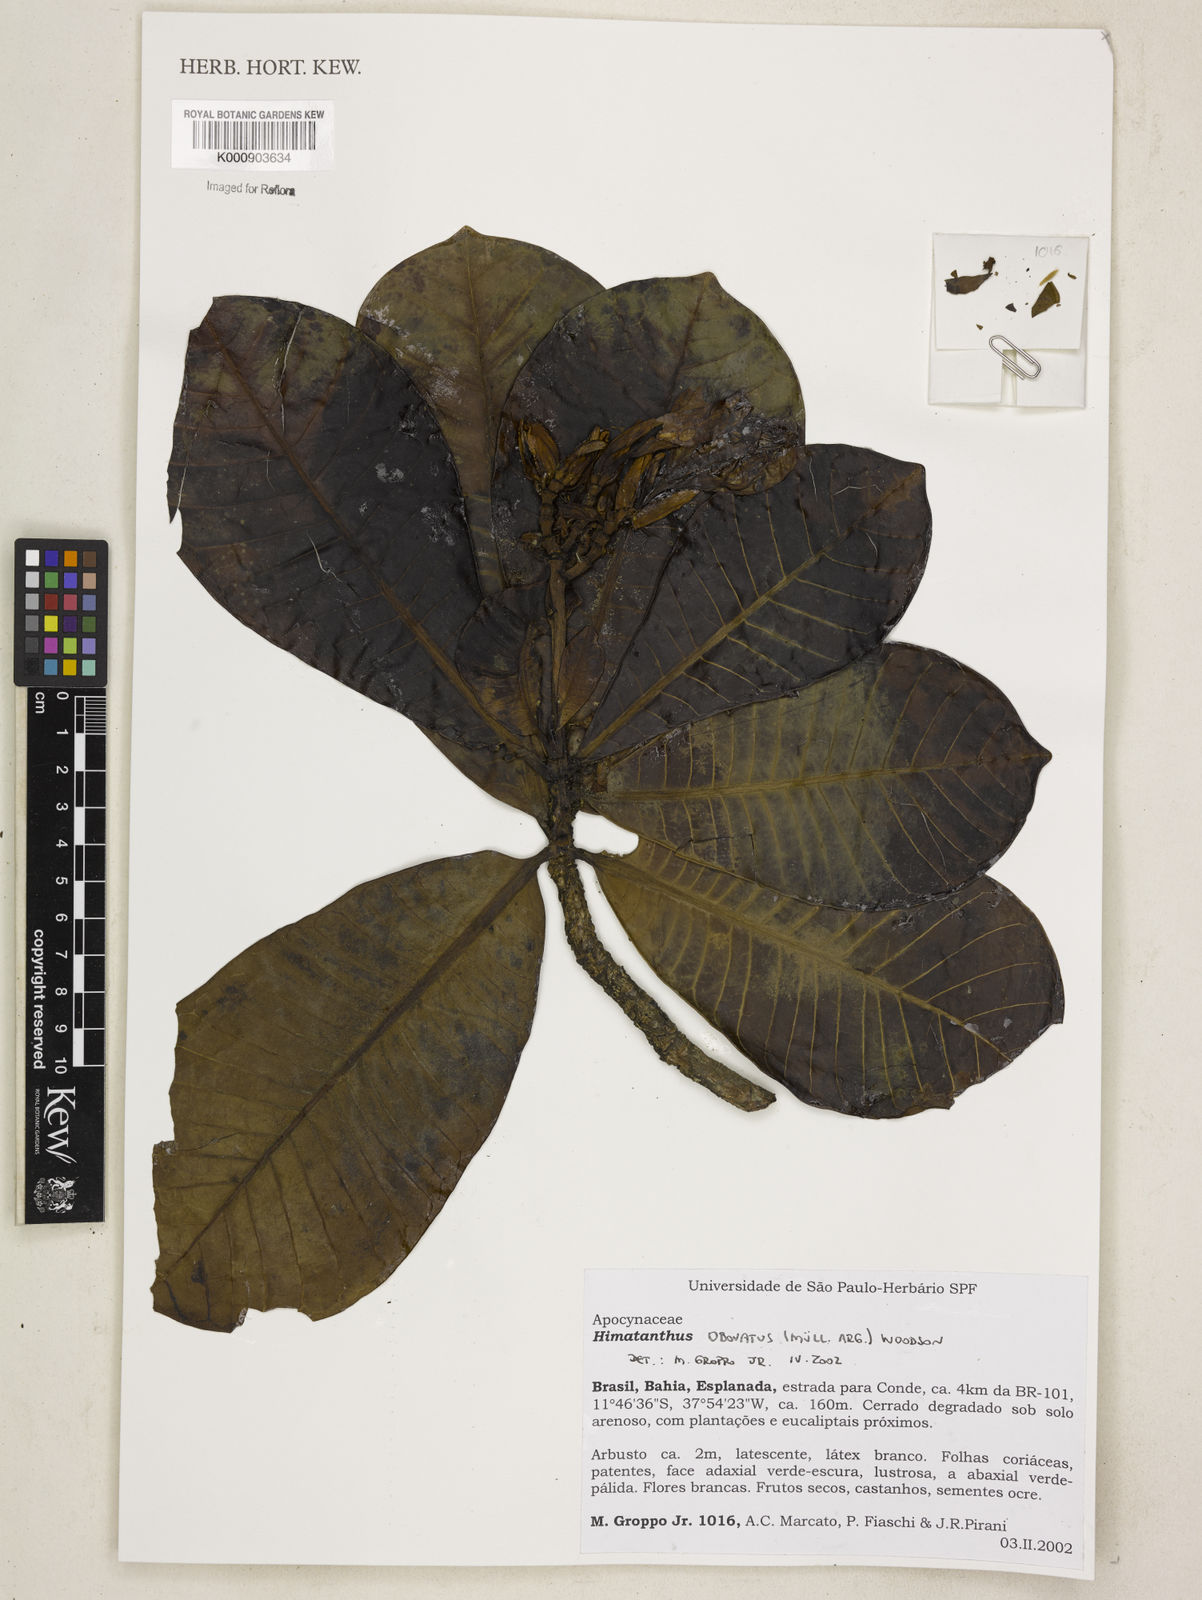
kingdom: Plantae
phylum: Tracheophyta
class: Magnoliopsida
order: Gentianales
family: Apocynaceae
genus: Himatanthus
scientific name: Himatanthus
